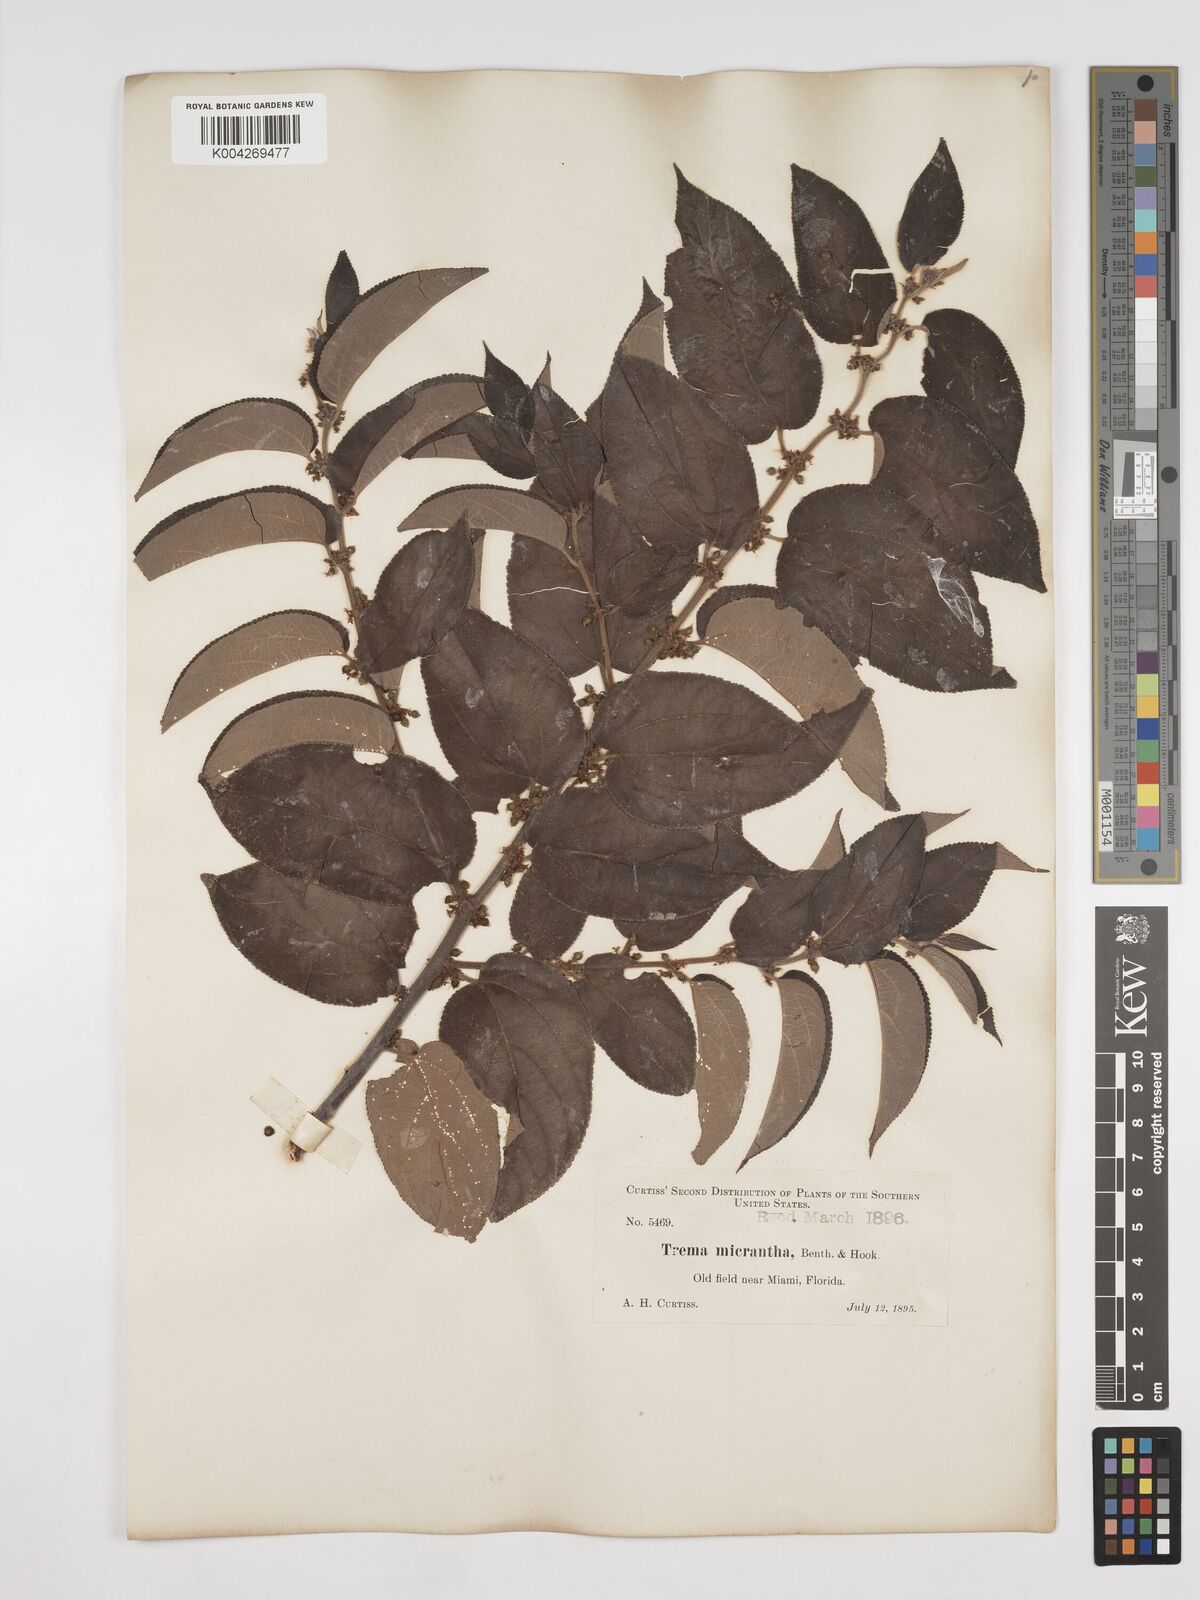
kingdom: Plantae
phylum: Tracheophyta
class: Magnoliopsida
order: Rosales
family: Cannabaceae
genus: Trema
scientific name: Trema micranthum
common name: Jamaican nettletree
